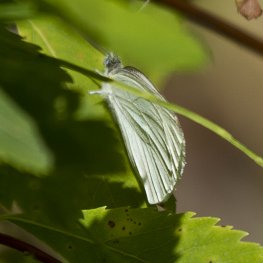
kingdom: Animalia
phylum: Arthropoda
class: Insecta
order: Lepidoptera
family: Pieridae
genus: Pieris
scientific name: Pieris oleracea
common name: Mustard White
